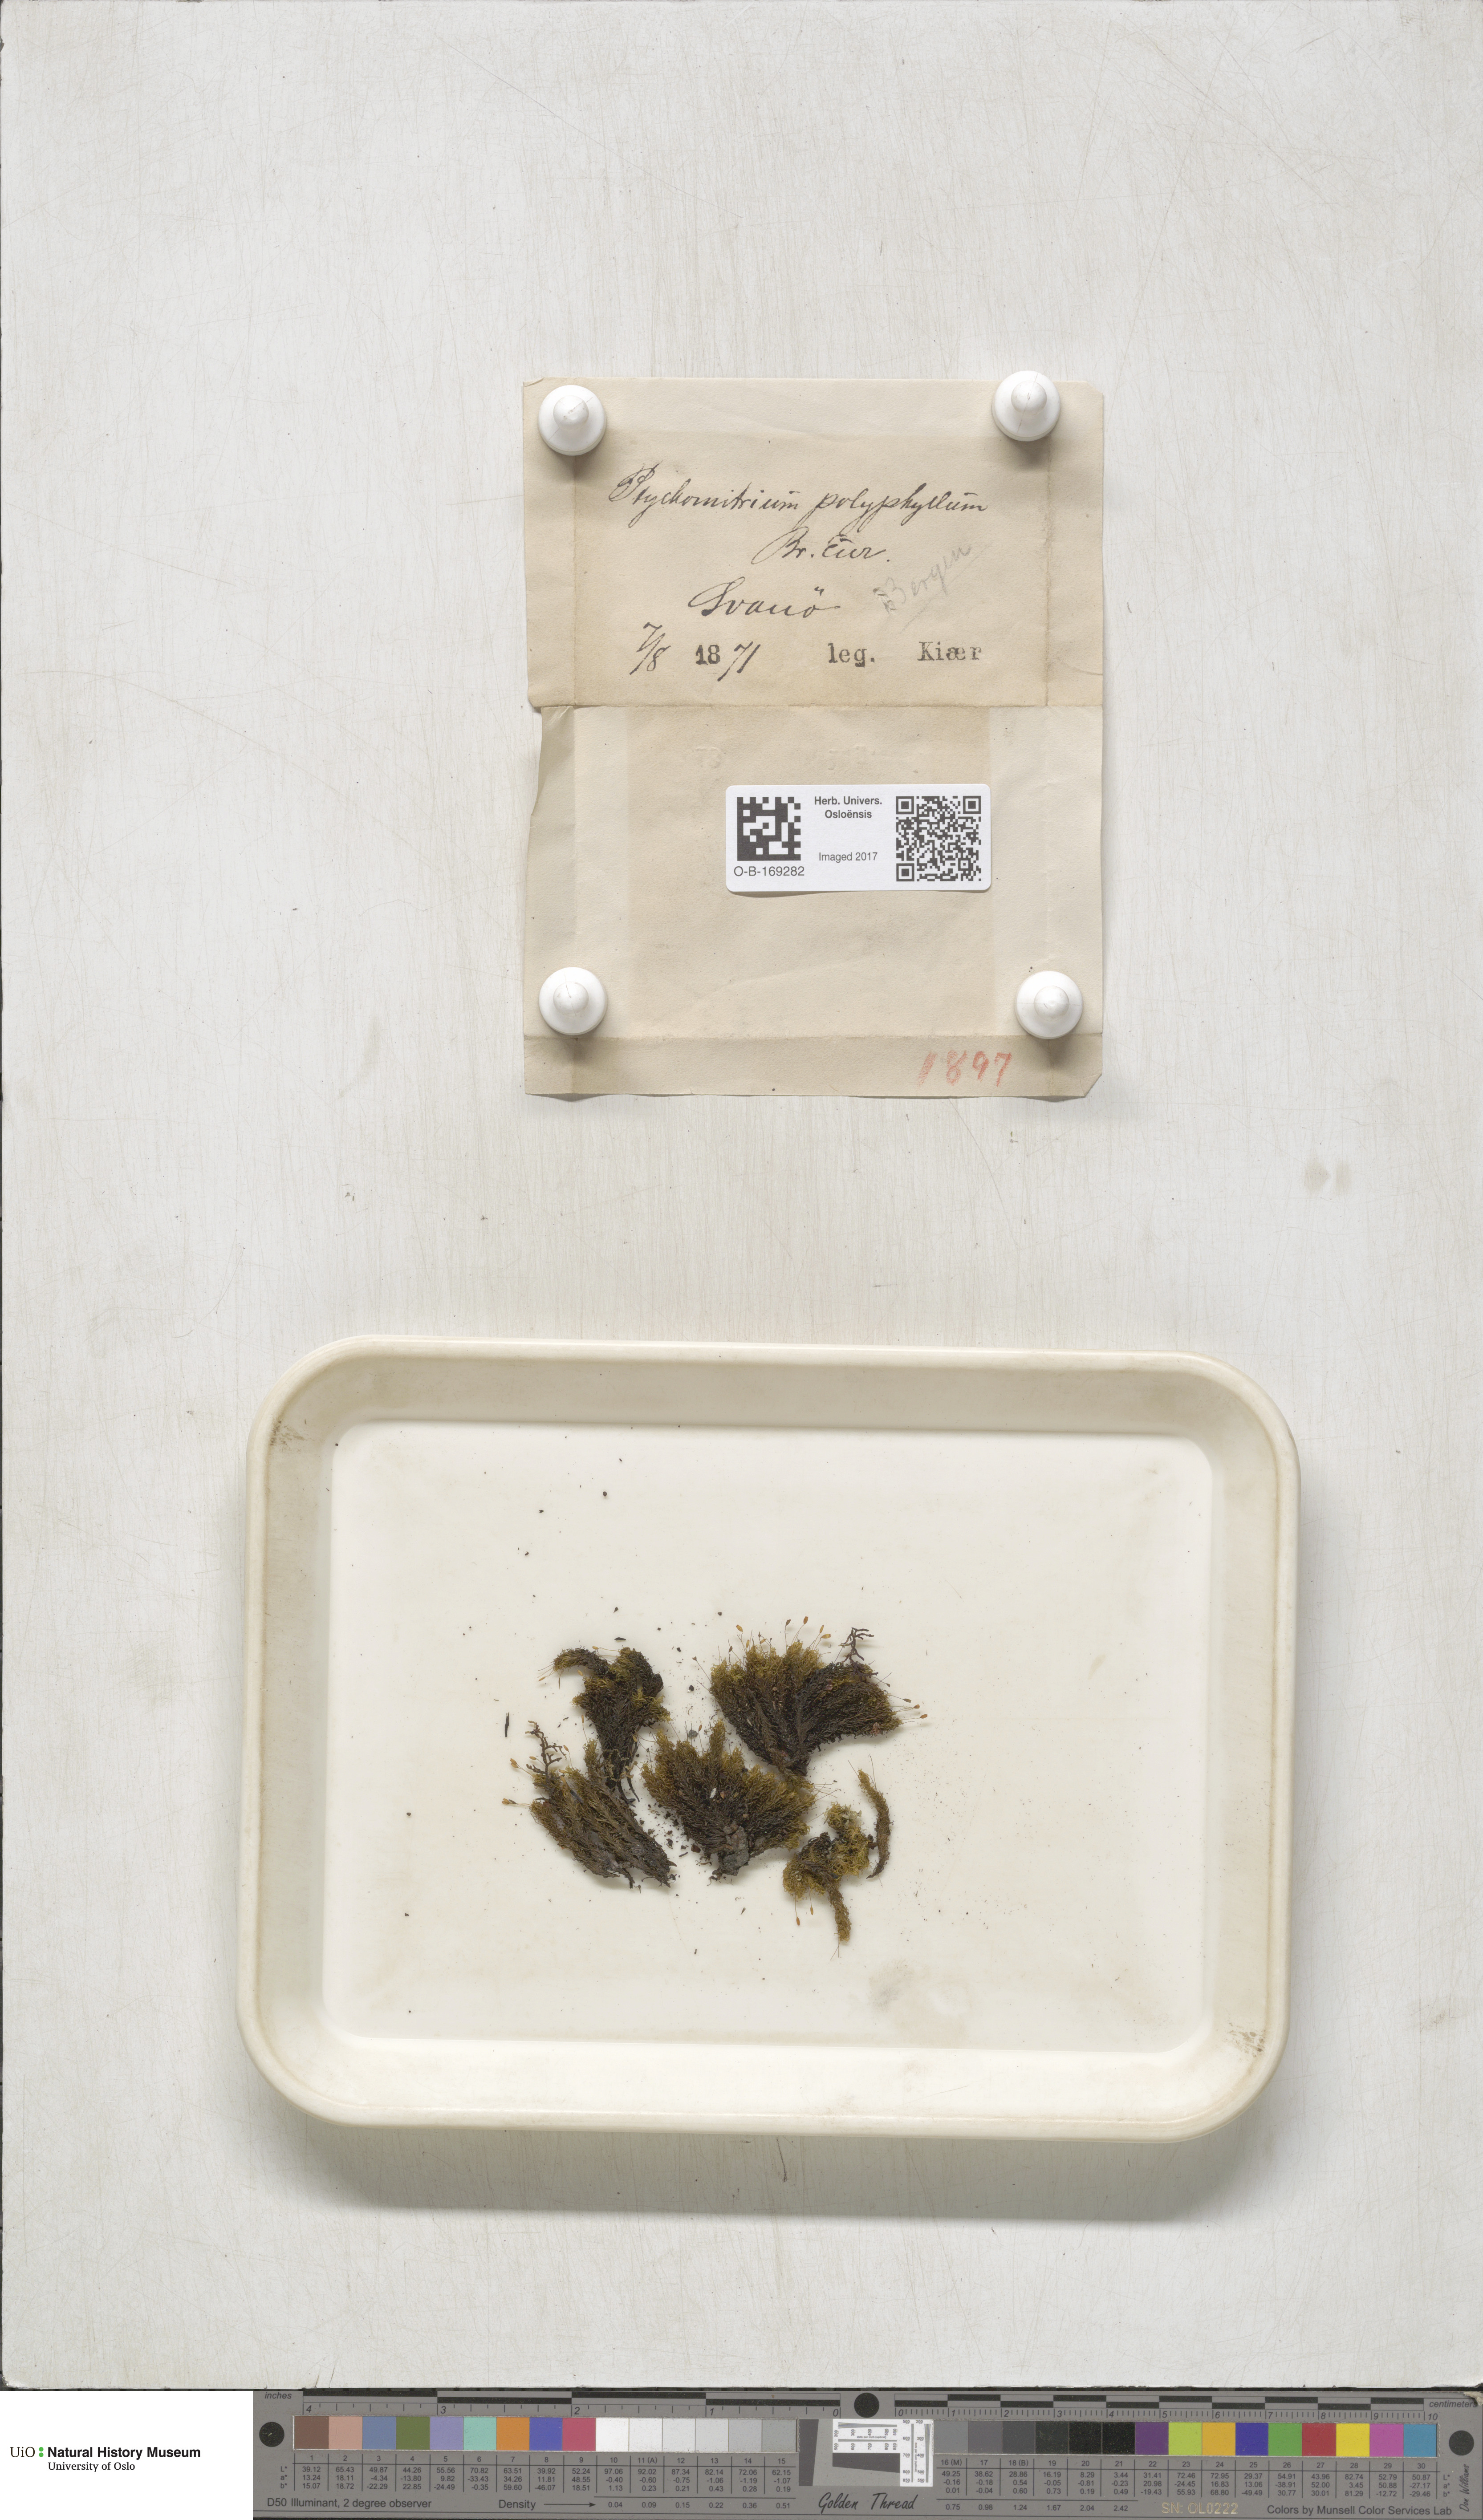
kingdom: Plantae
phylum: Bryophyta
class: Bryopsida
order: Grimmiales
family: Ptychomitriaceae
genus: Ptychomitrium
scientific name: Ptychomitrium polyphyllum
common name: Greater pincushion
